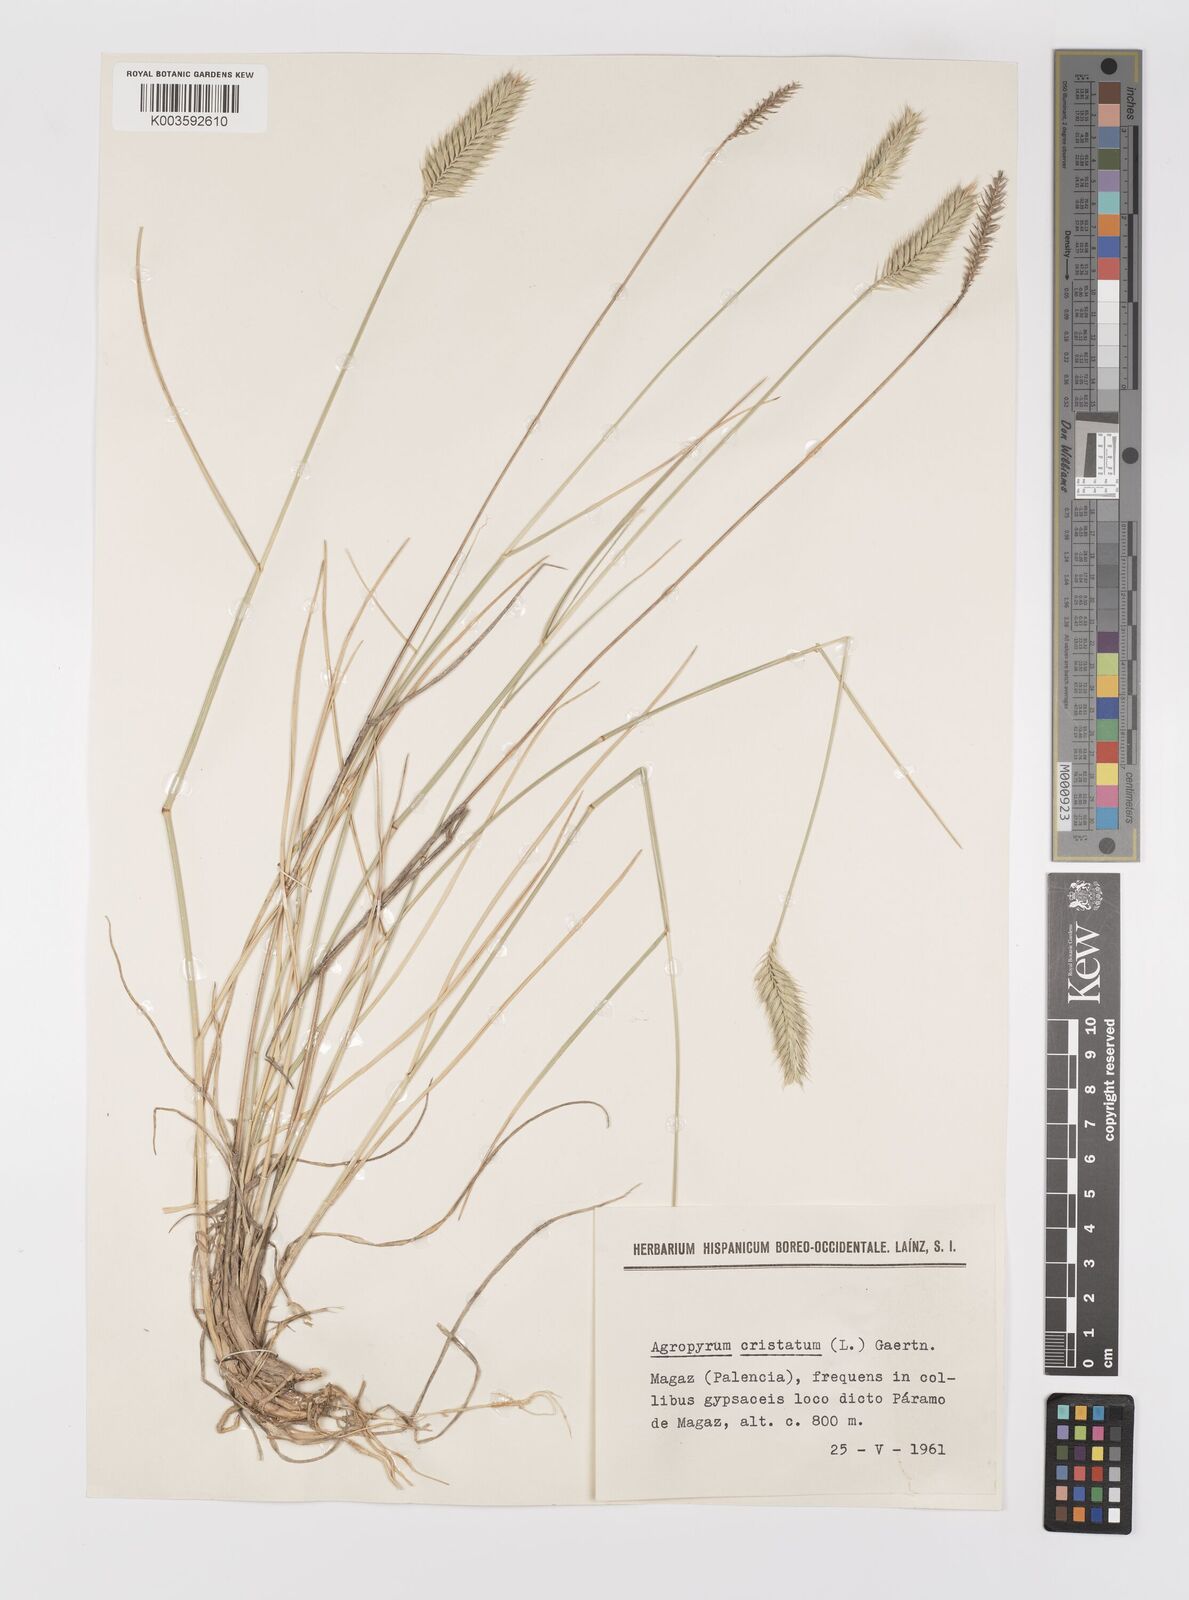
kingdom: Plantae
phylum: Tracheophyta
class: Liliopsida
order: Poales
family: Poaceae
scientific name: Poaceae
